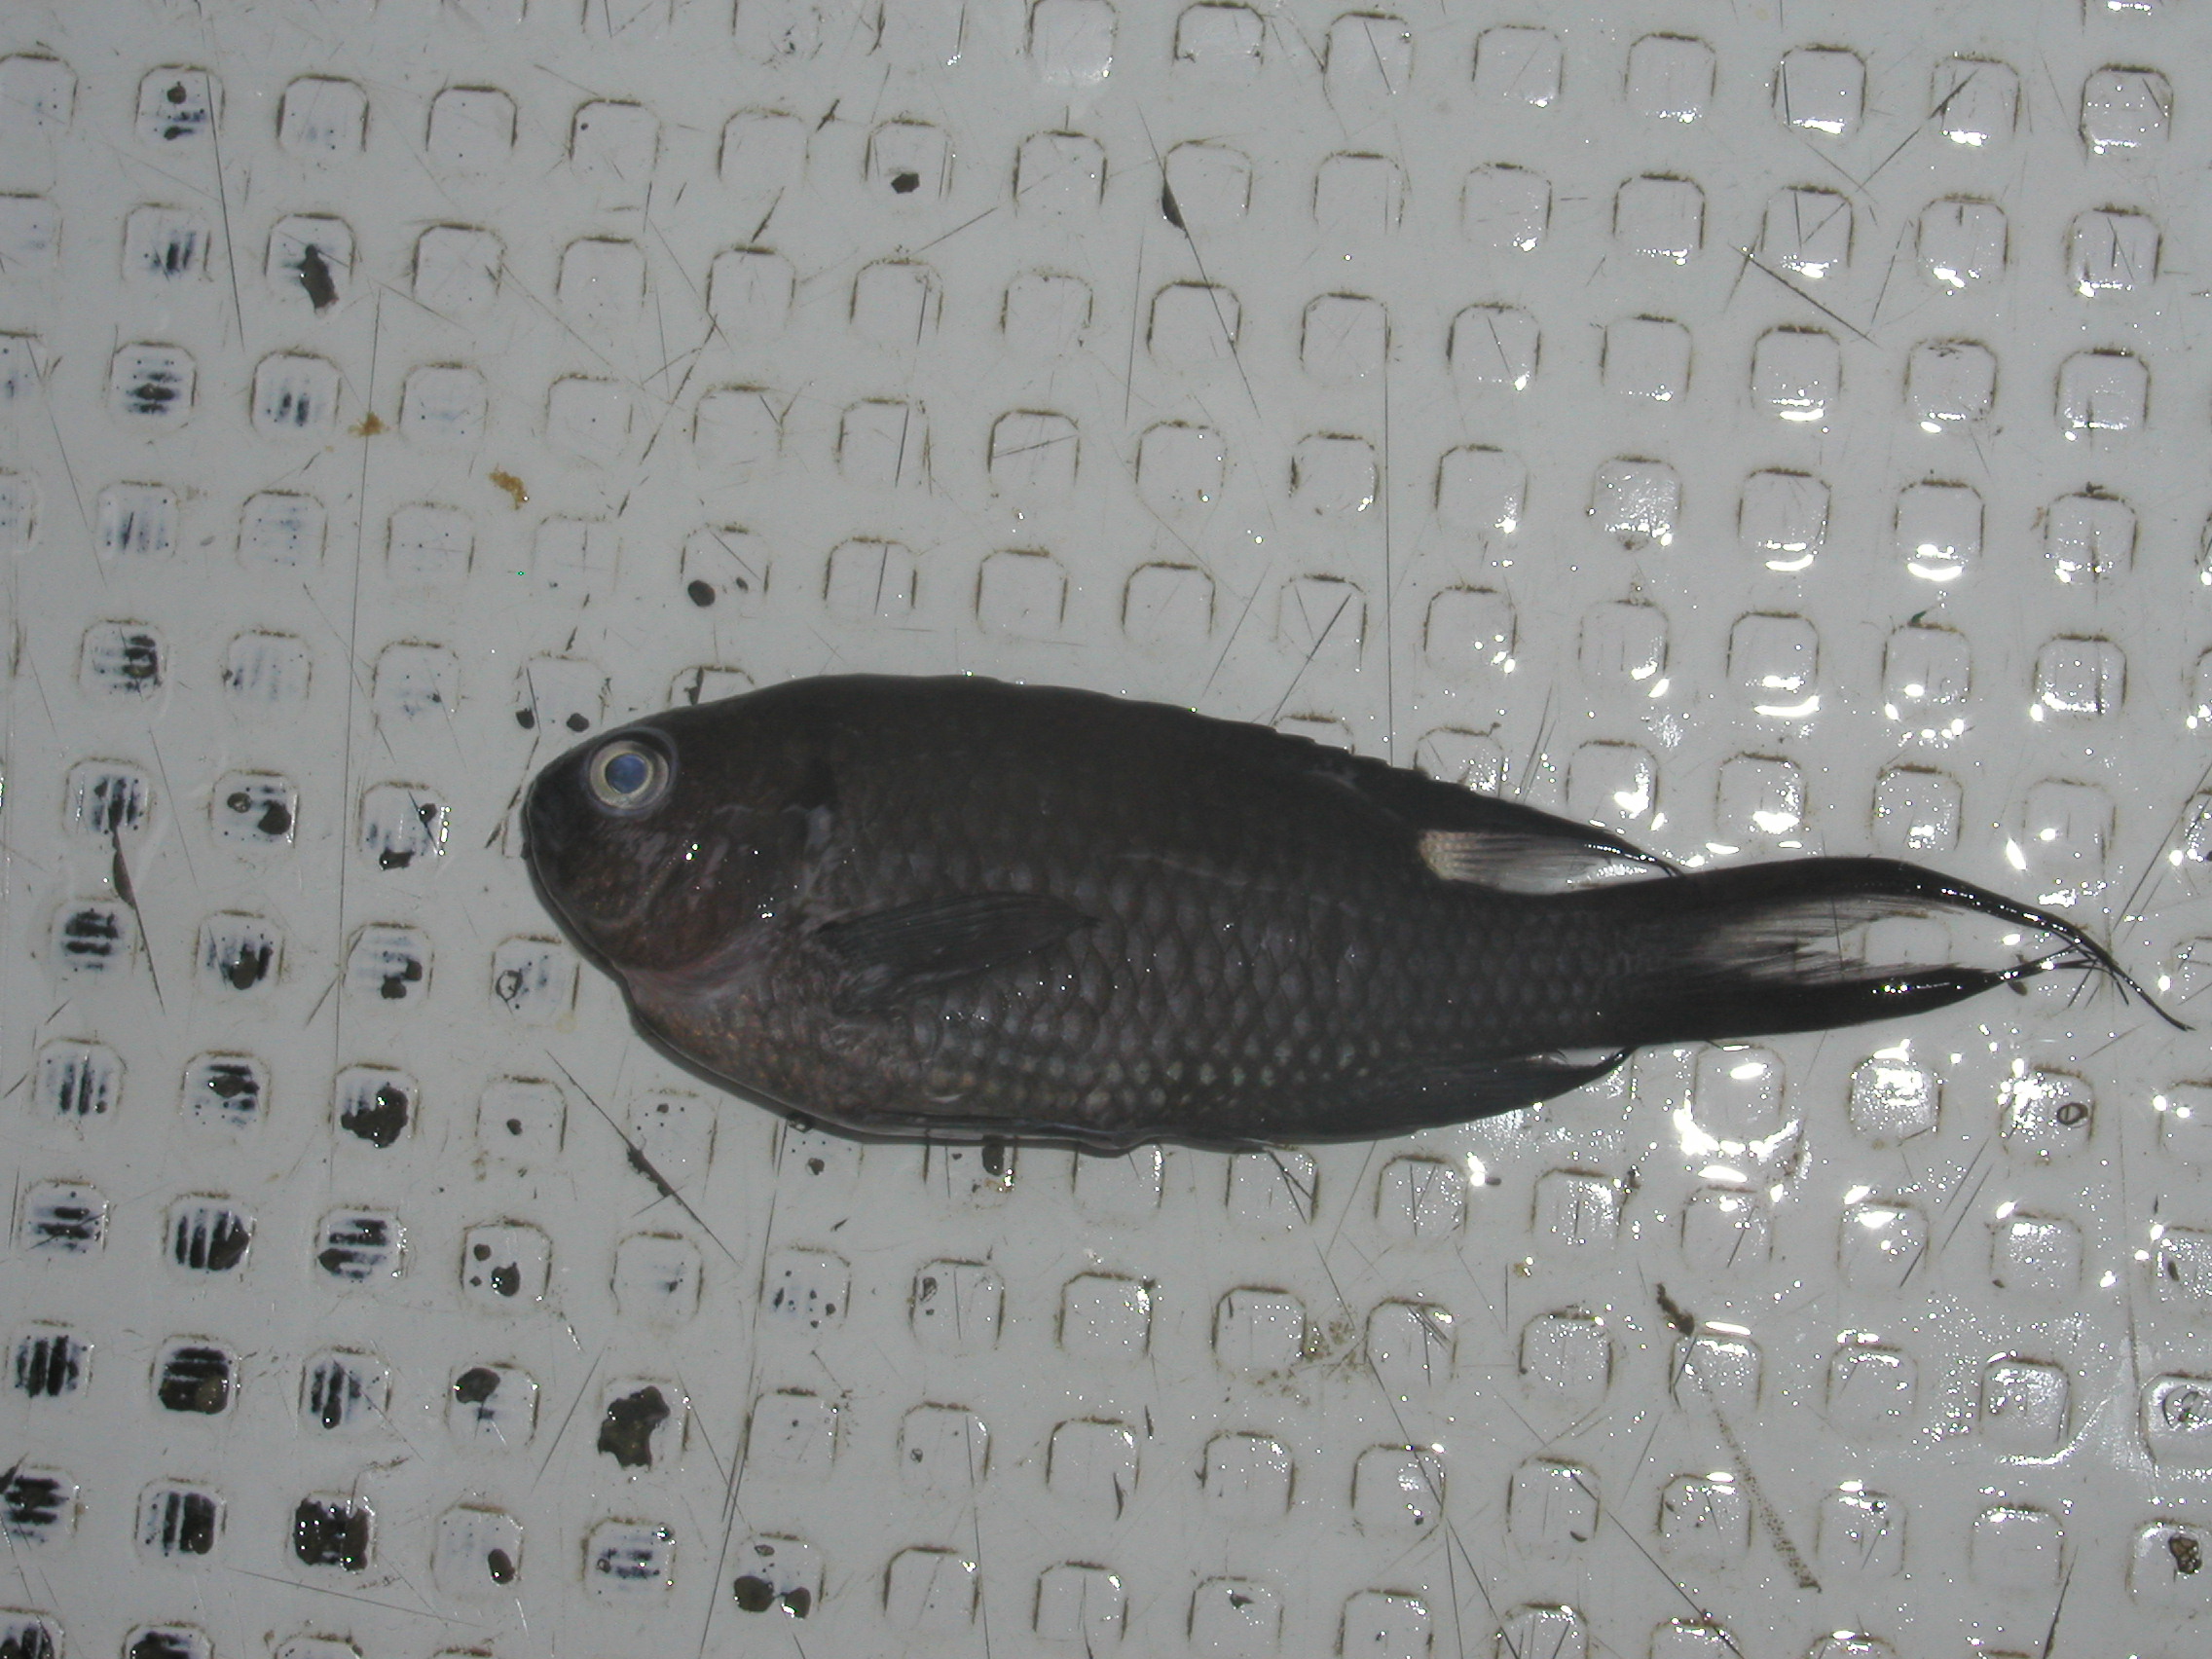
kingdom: Animalia
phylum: Chordata
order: Perciformes
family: Pomacentridae
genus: Neopomacentrus
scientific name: Neopomacentrus cyanomos
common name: Regal demoiselle
